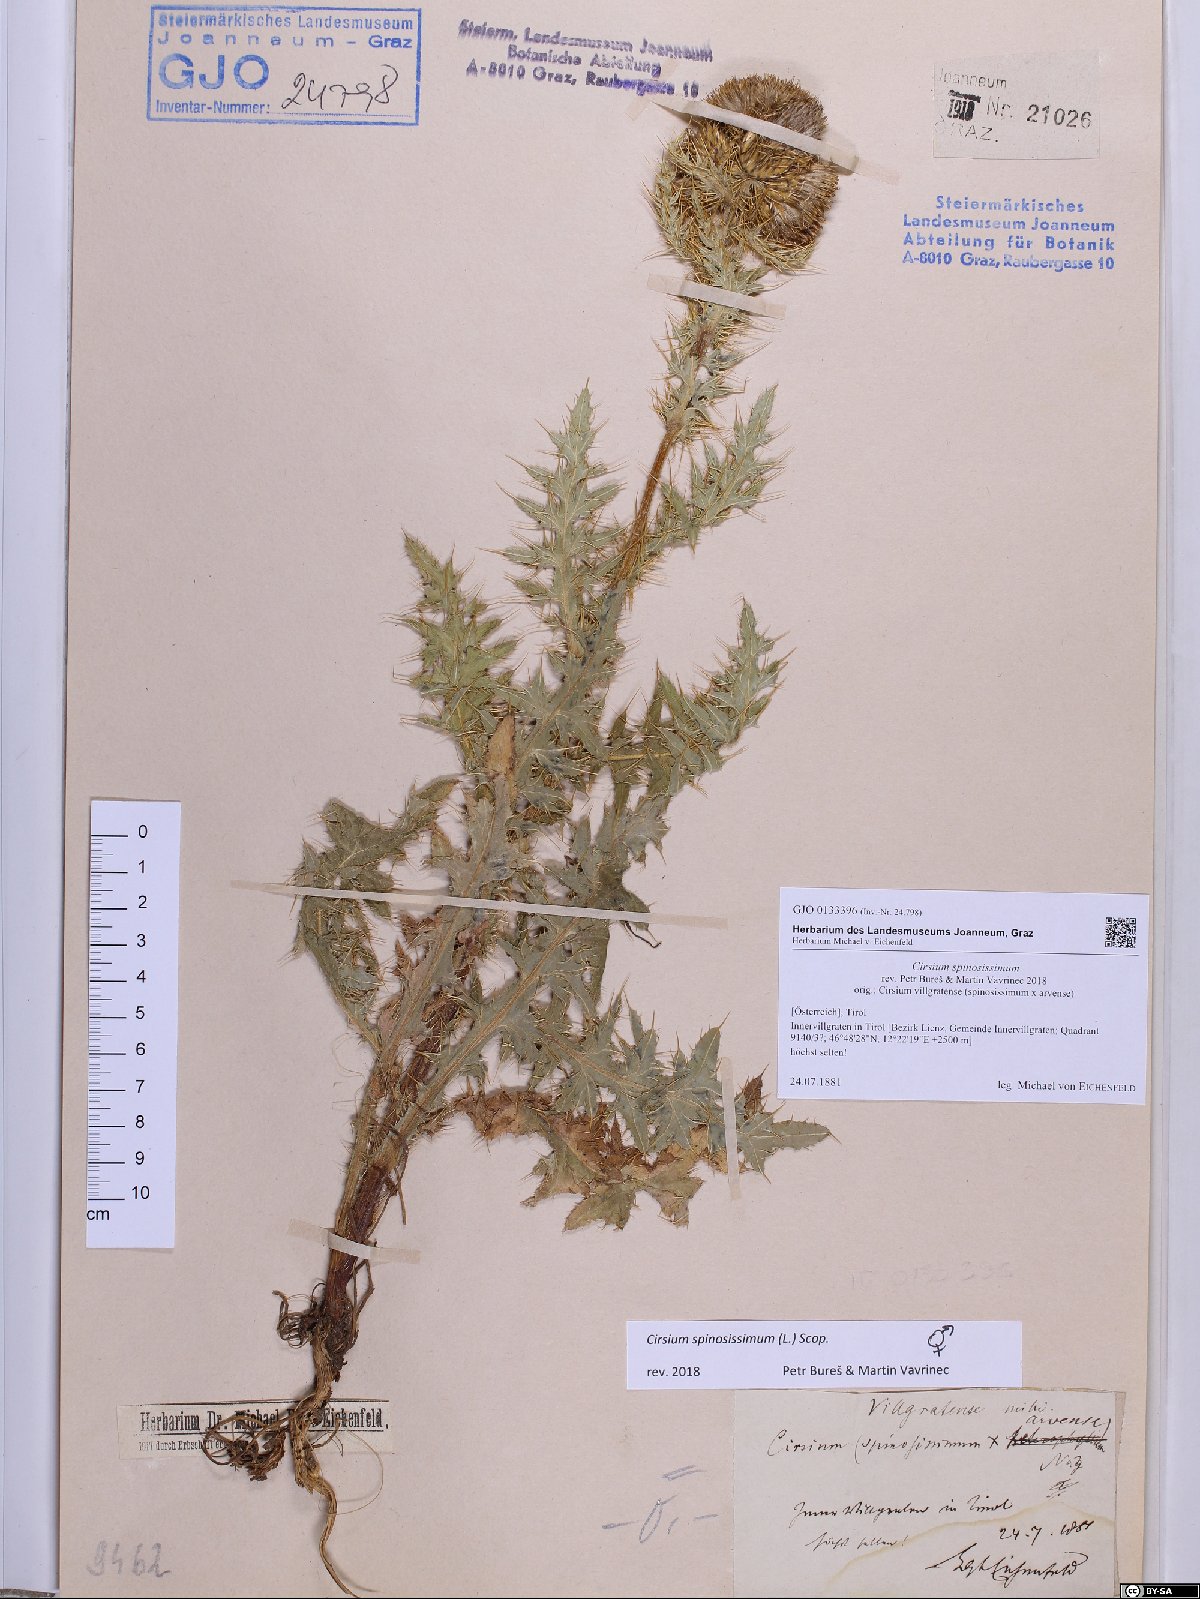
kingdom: Plantae
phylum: Tracheophyta
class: Magnoliopsida
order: Asterales
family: Asteraceae
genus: Cirsium
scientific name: Cirsium spinosissimum
